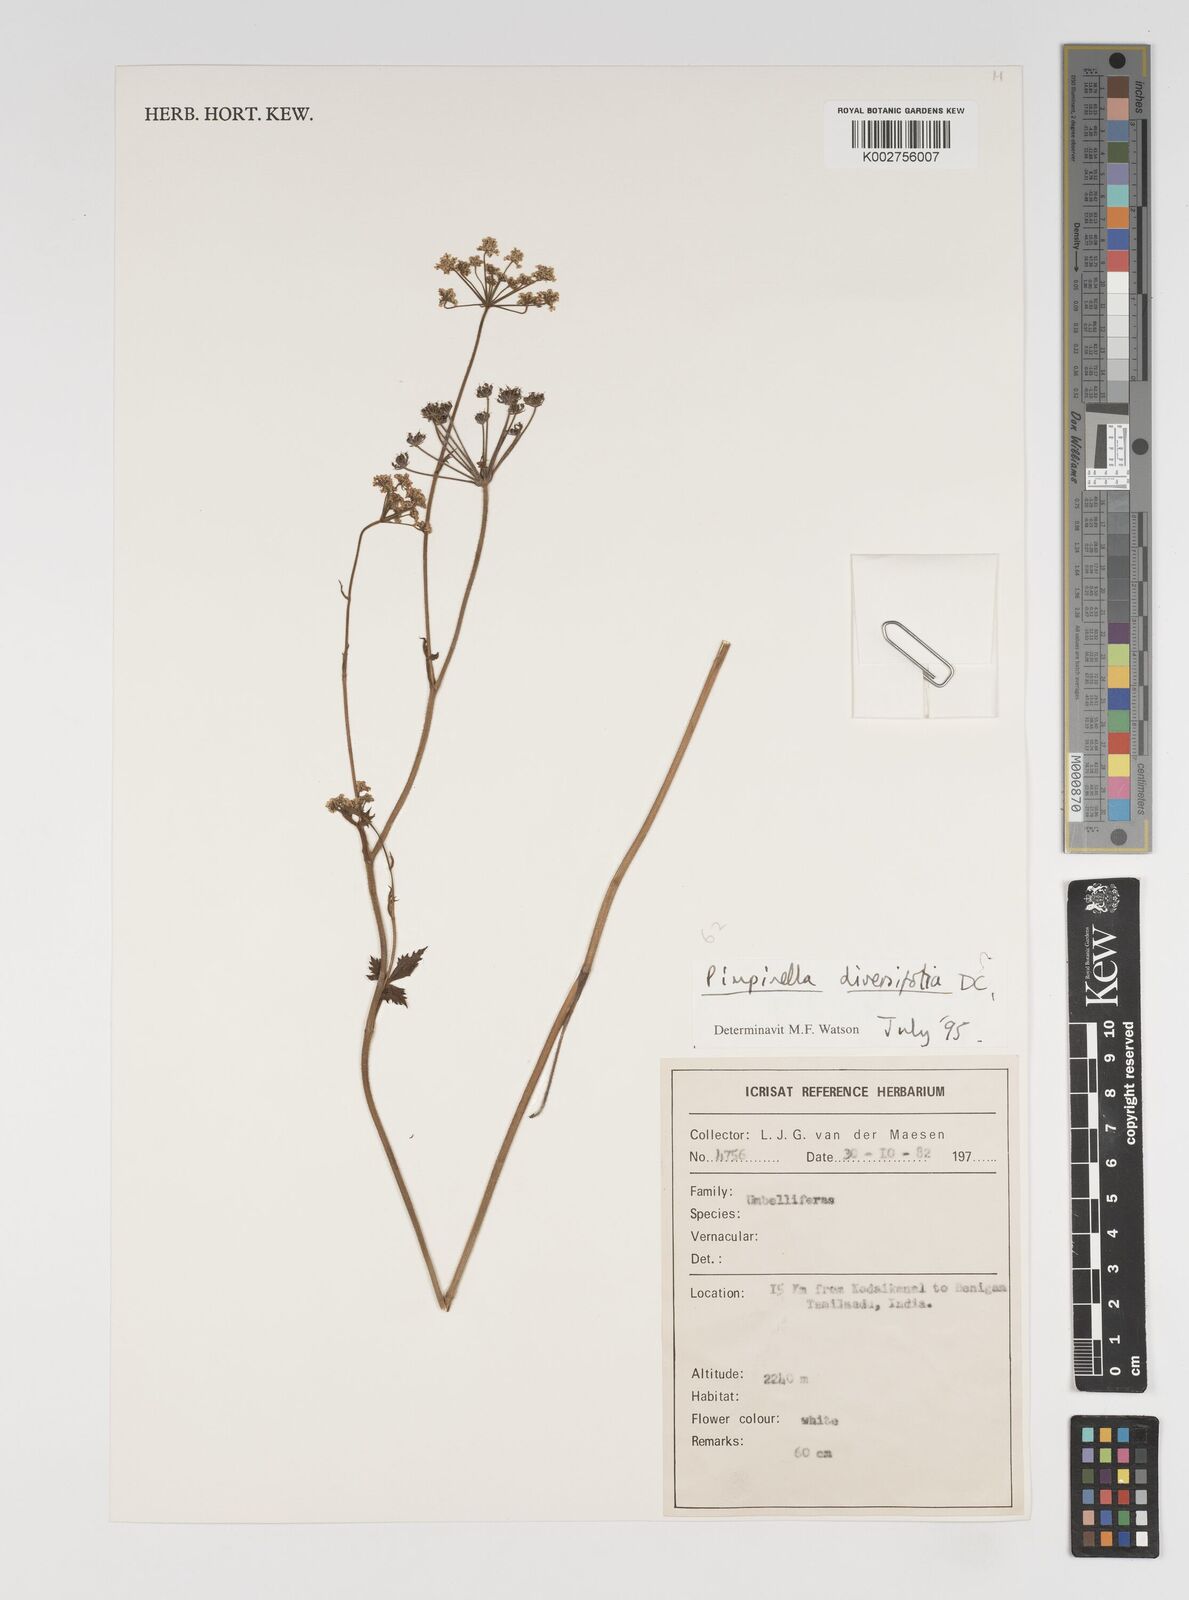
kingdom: Plantae
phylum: Tracheophyta
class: Magnoliopsida
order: Apiales
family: Apiaceae
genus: Pimpinella
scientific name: Pimpinella diversifolia
